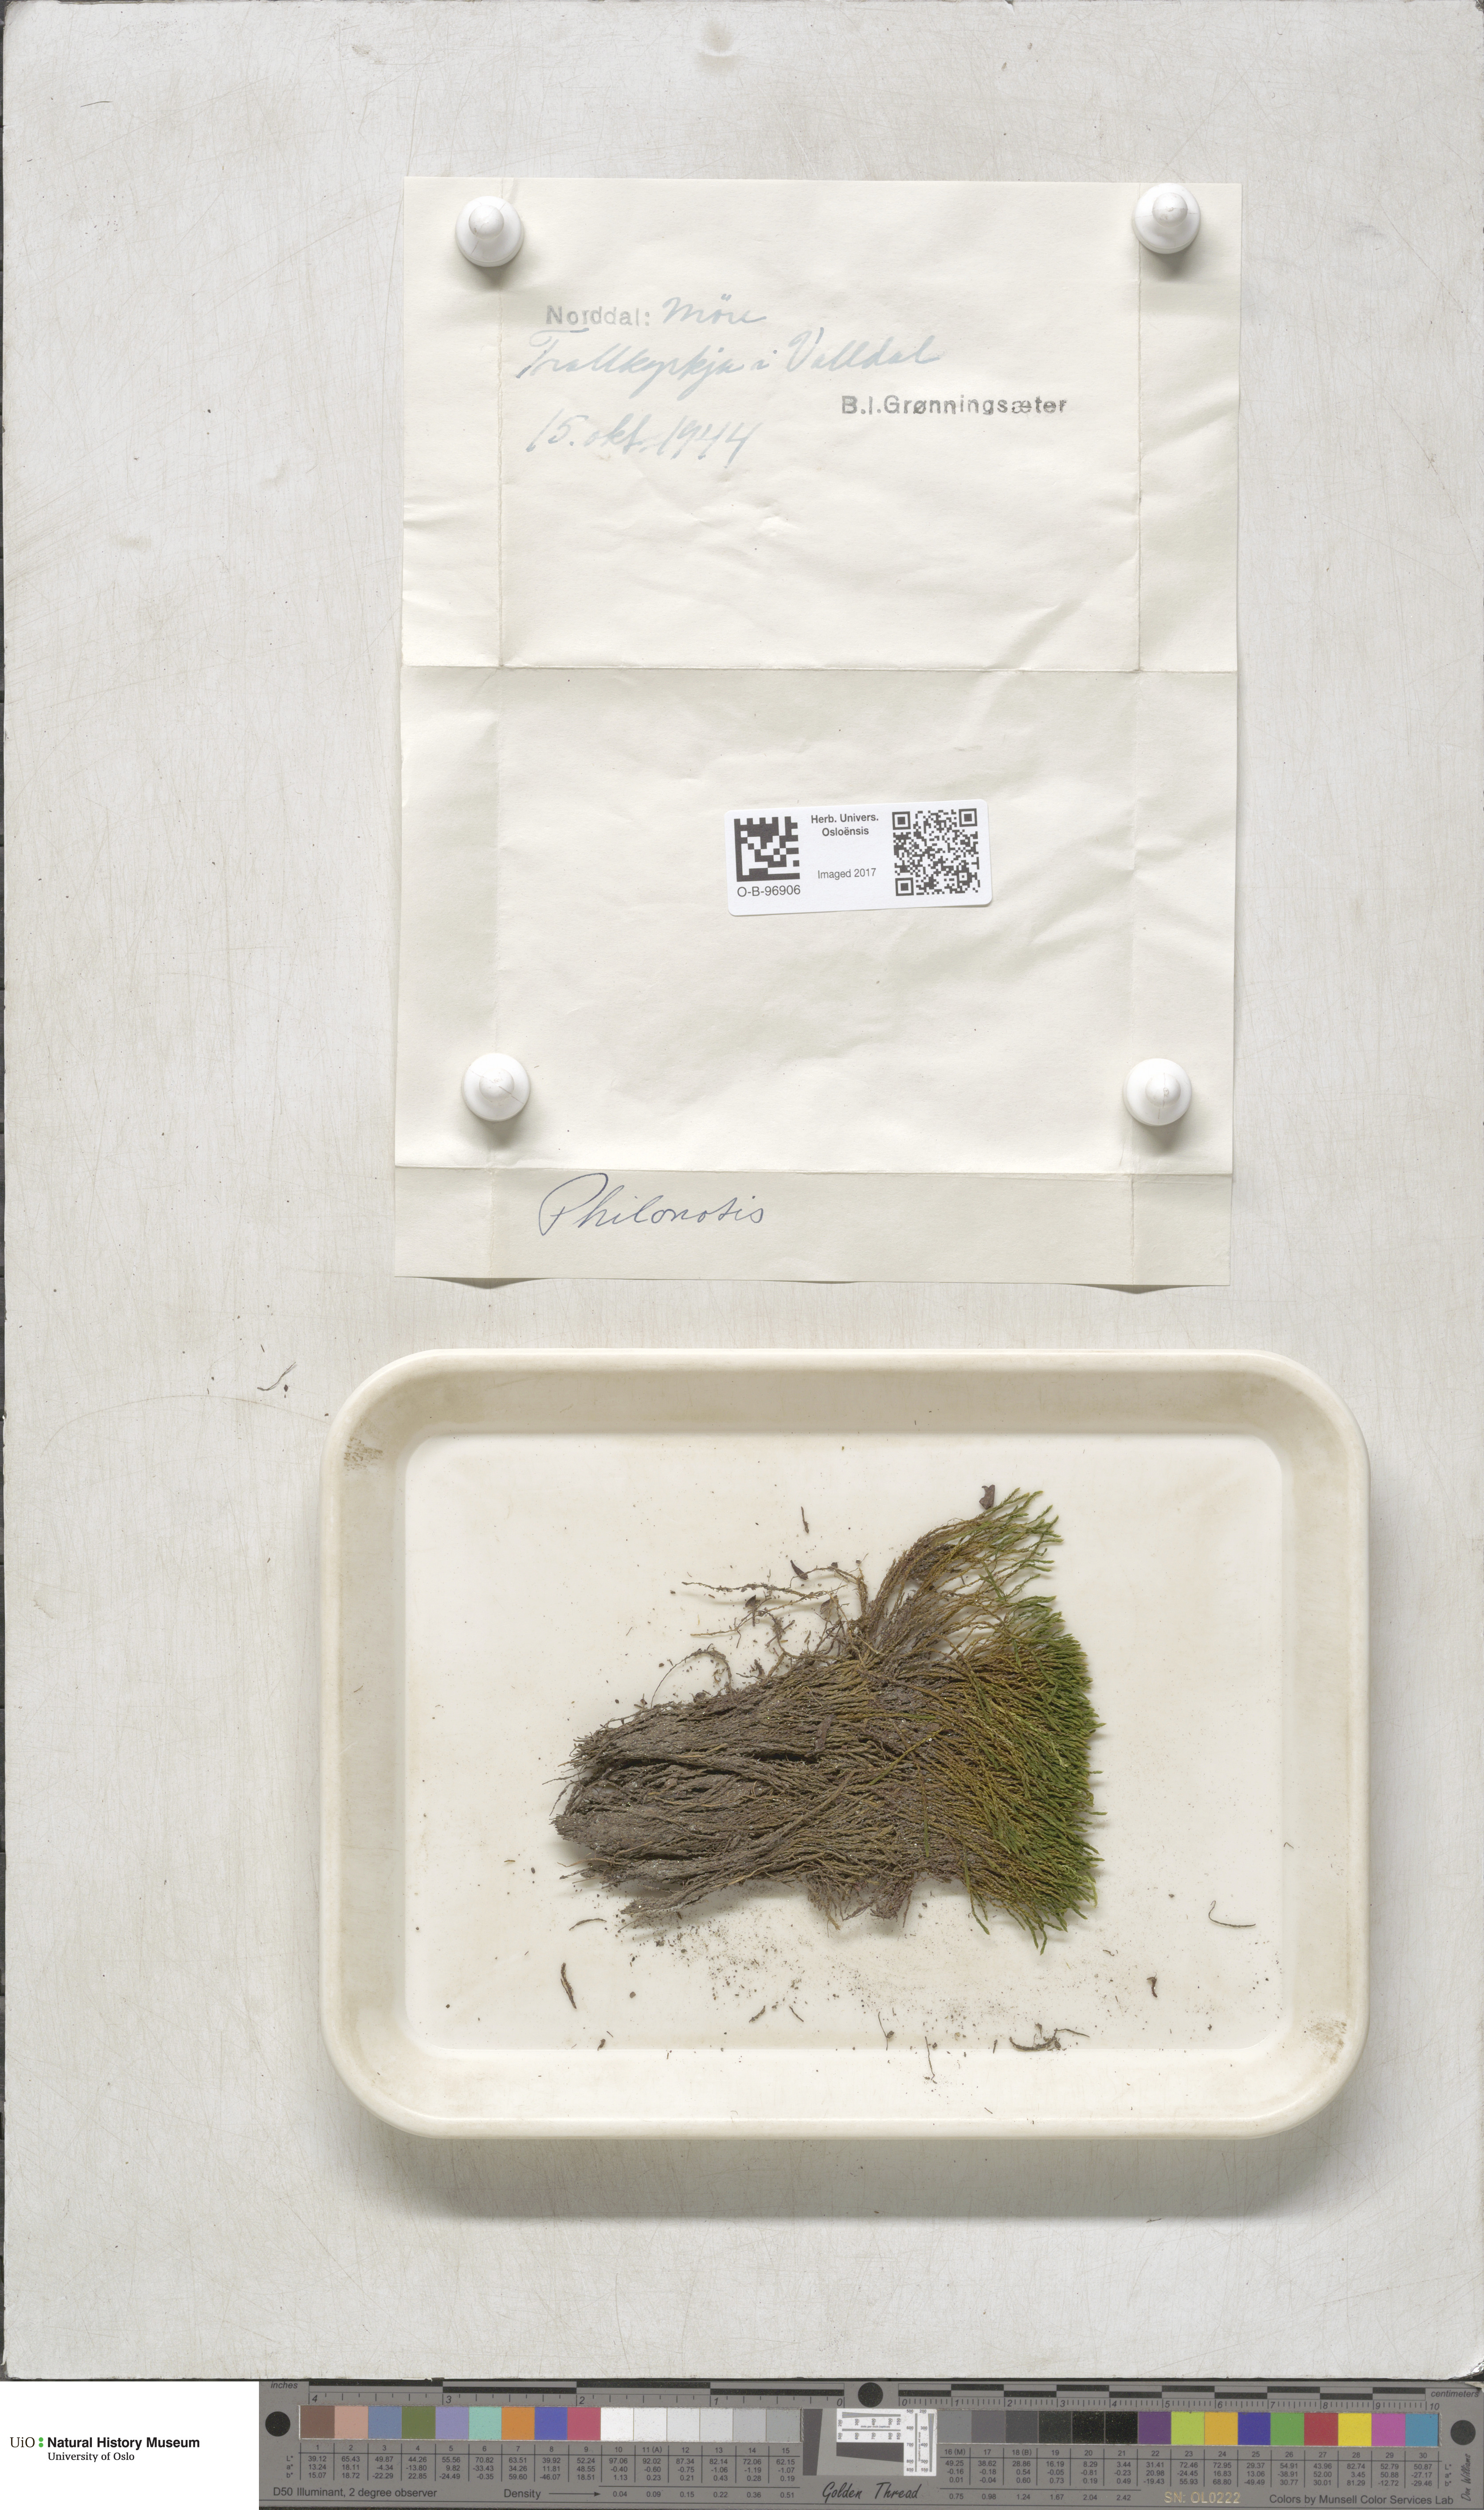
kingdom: Plantae
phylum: Bryophyta
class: Bryopsida
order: Bartramiales
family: Bartramiaceae
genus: Philonotis
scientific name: Philonotis fontana
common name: Fountain apple-moss
